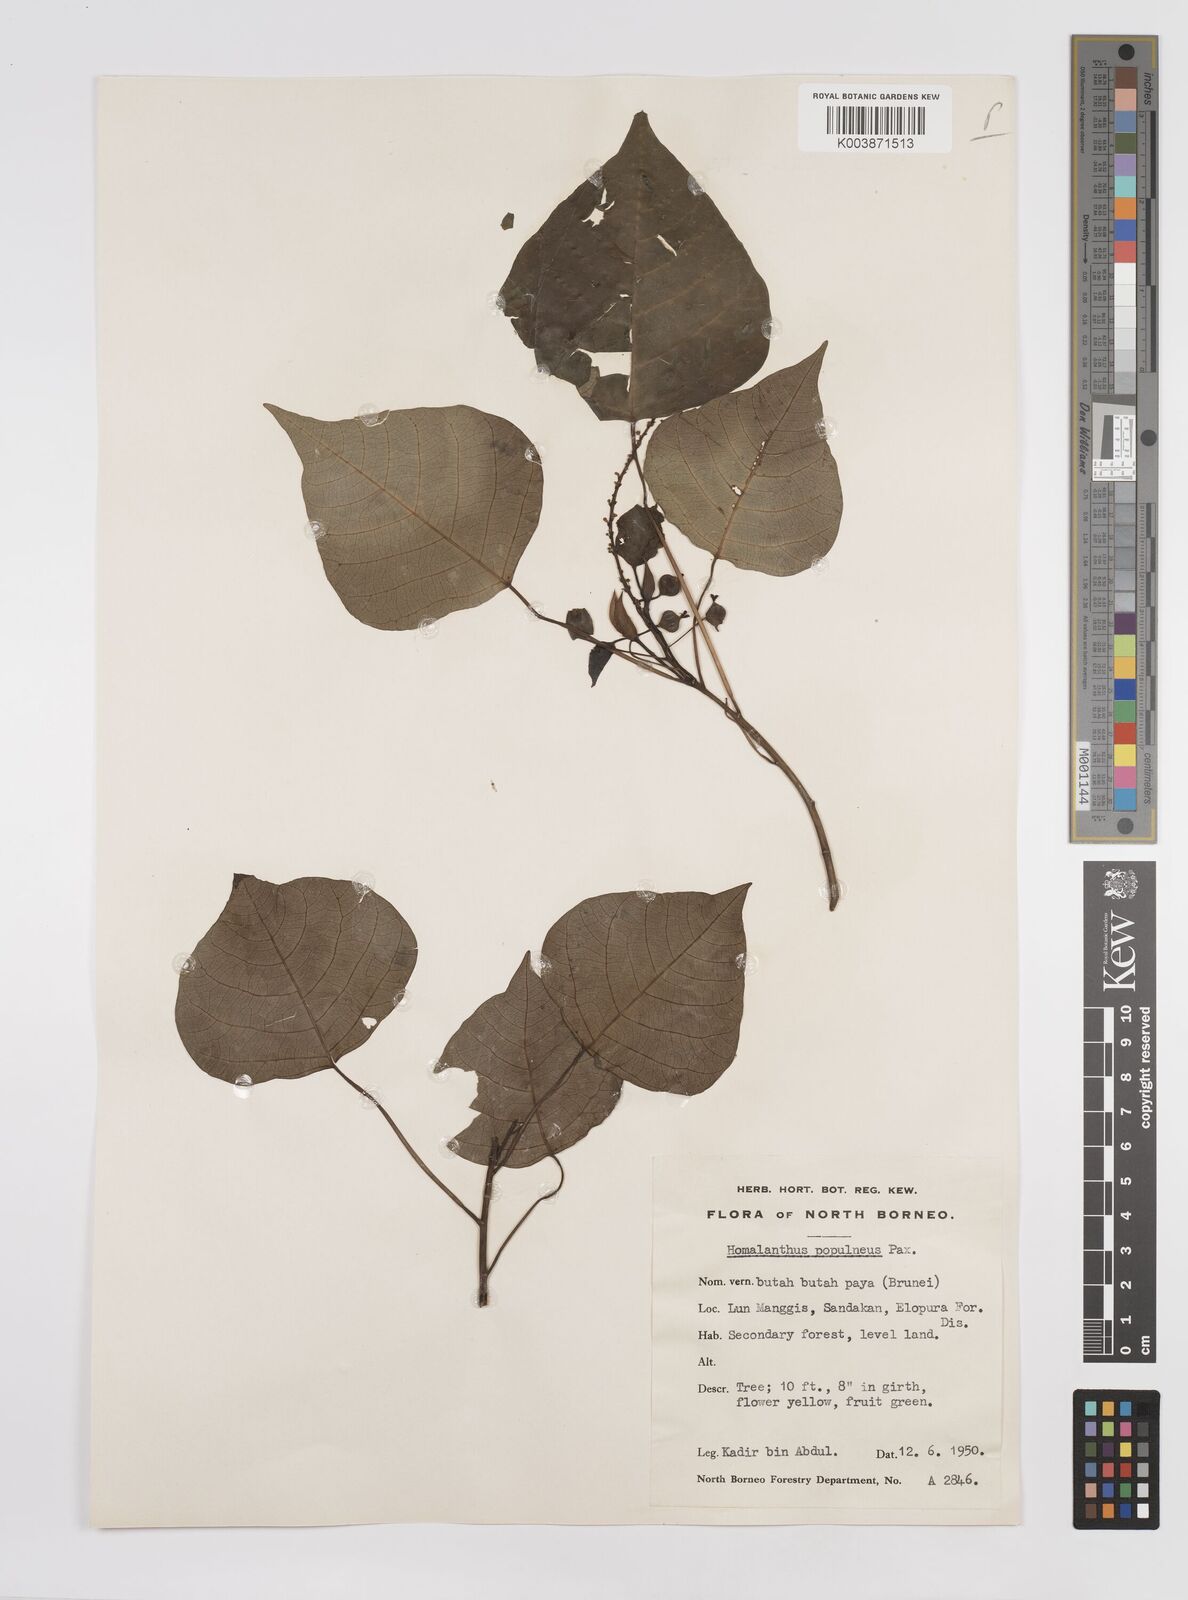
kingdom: Plantae
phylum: Tracheophyta
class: Magnoliopsida
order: Malpighiales
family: Euphorbiaceae
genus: Homalanthus
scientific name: Homalanthus populneus
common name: Spurge
